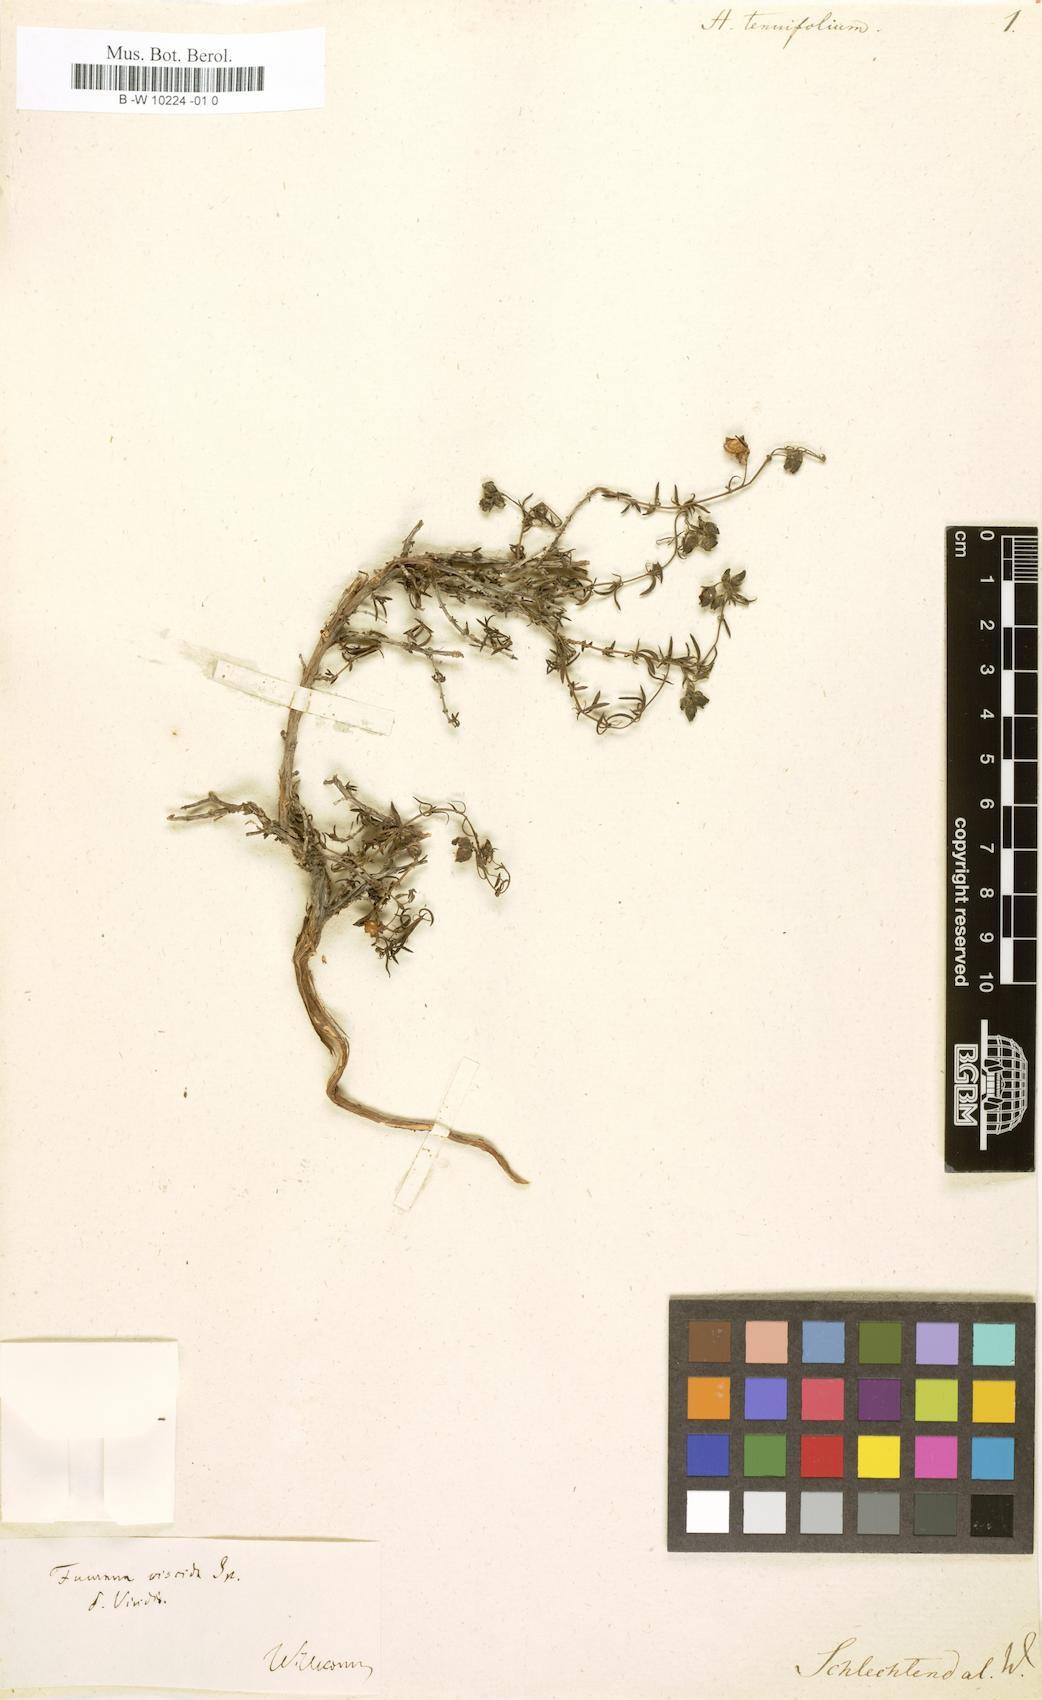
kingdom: Plantae
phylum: Tracheophyta
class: Magnoliopsida
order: Malvales
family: Cistaceae
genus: Fumana
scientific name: Fumana procumbens
